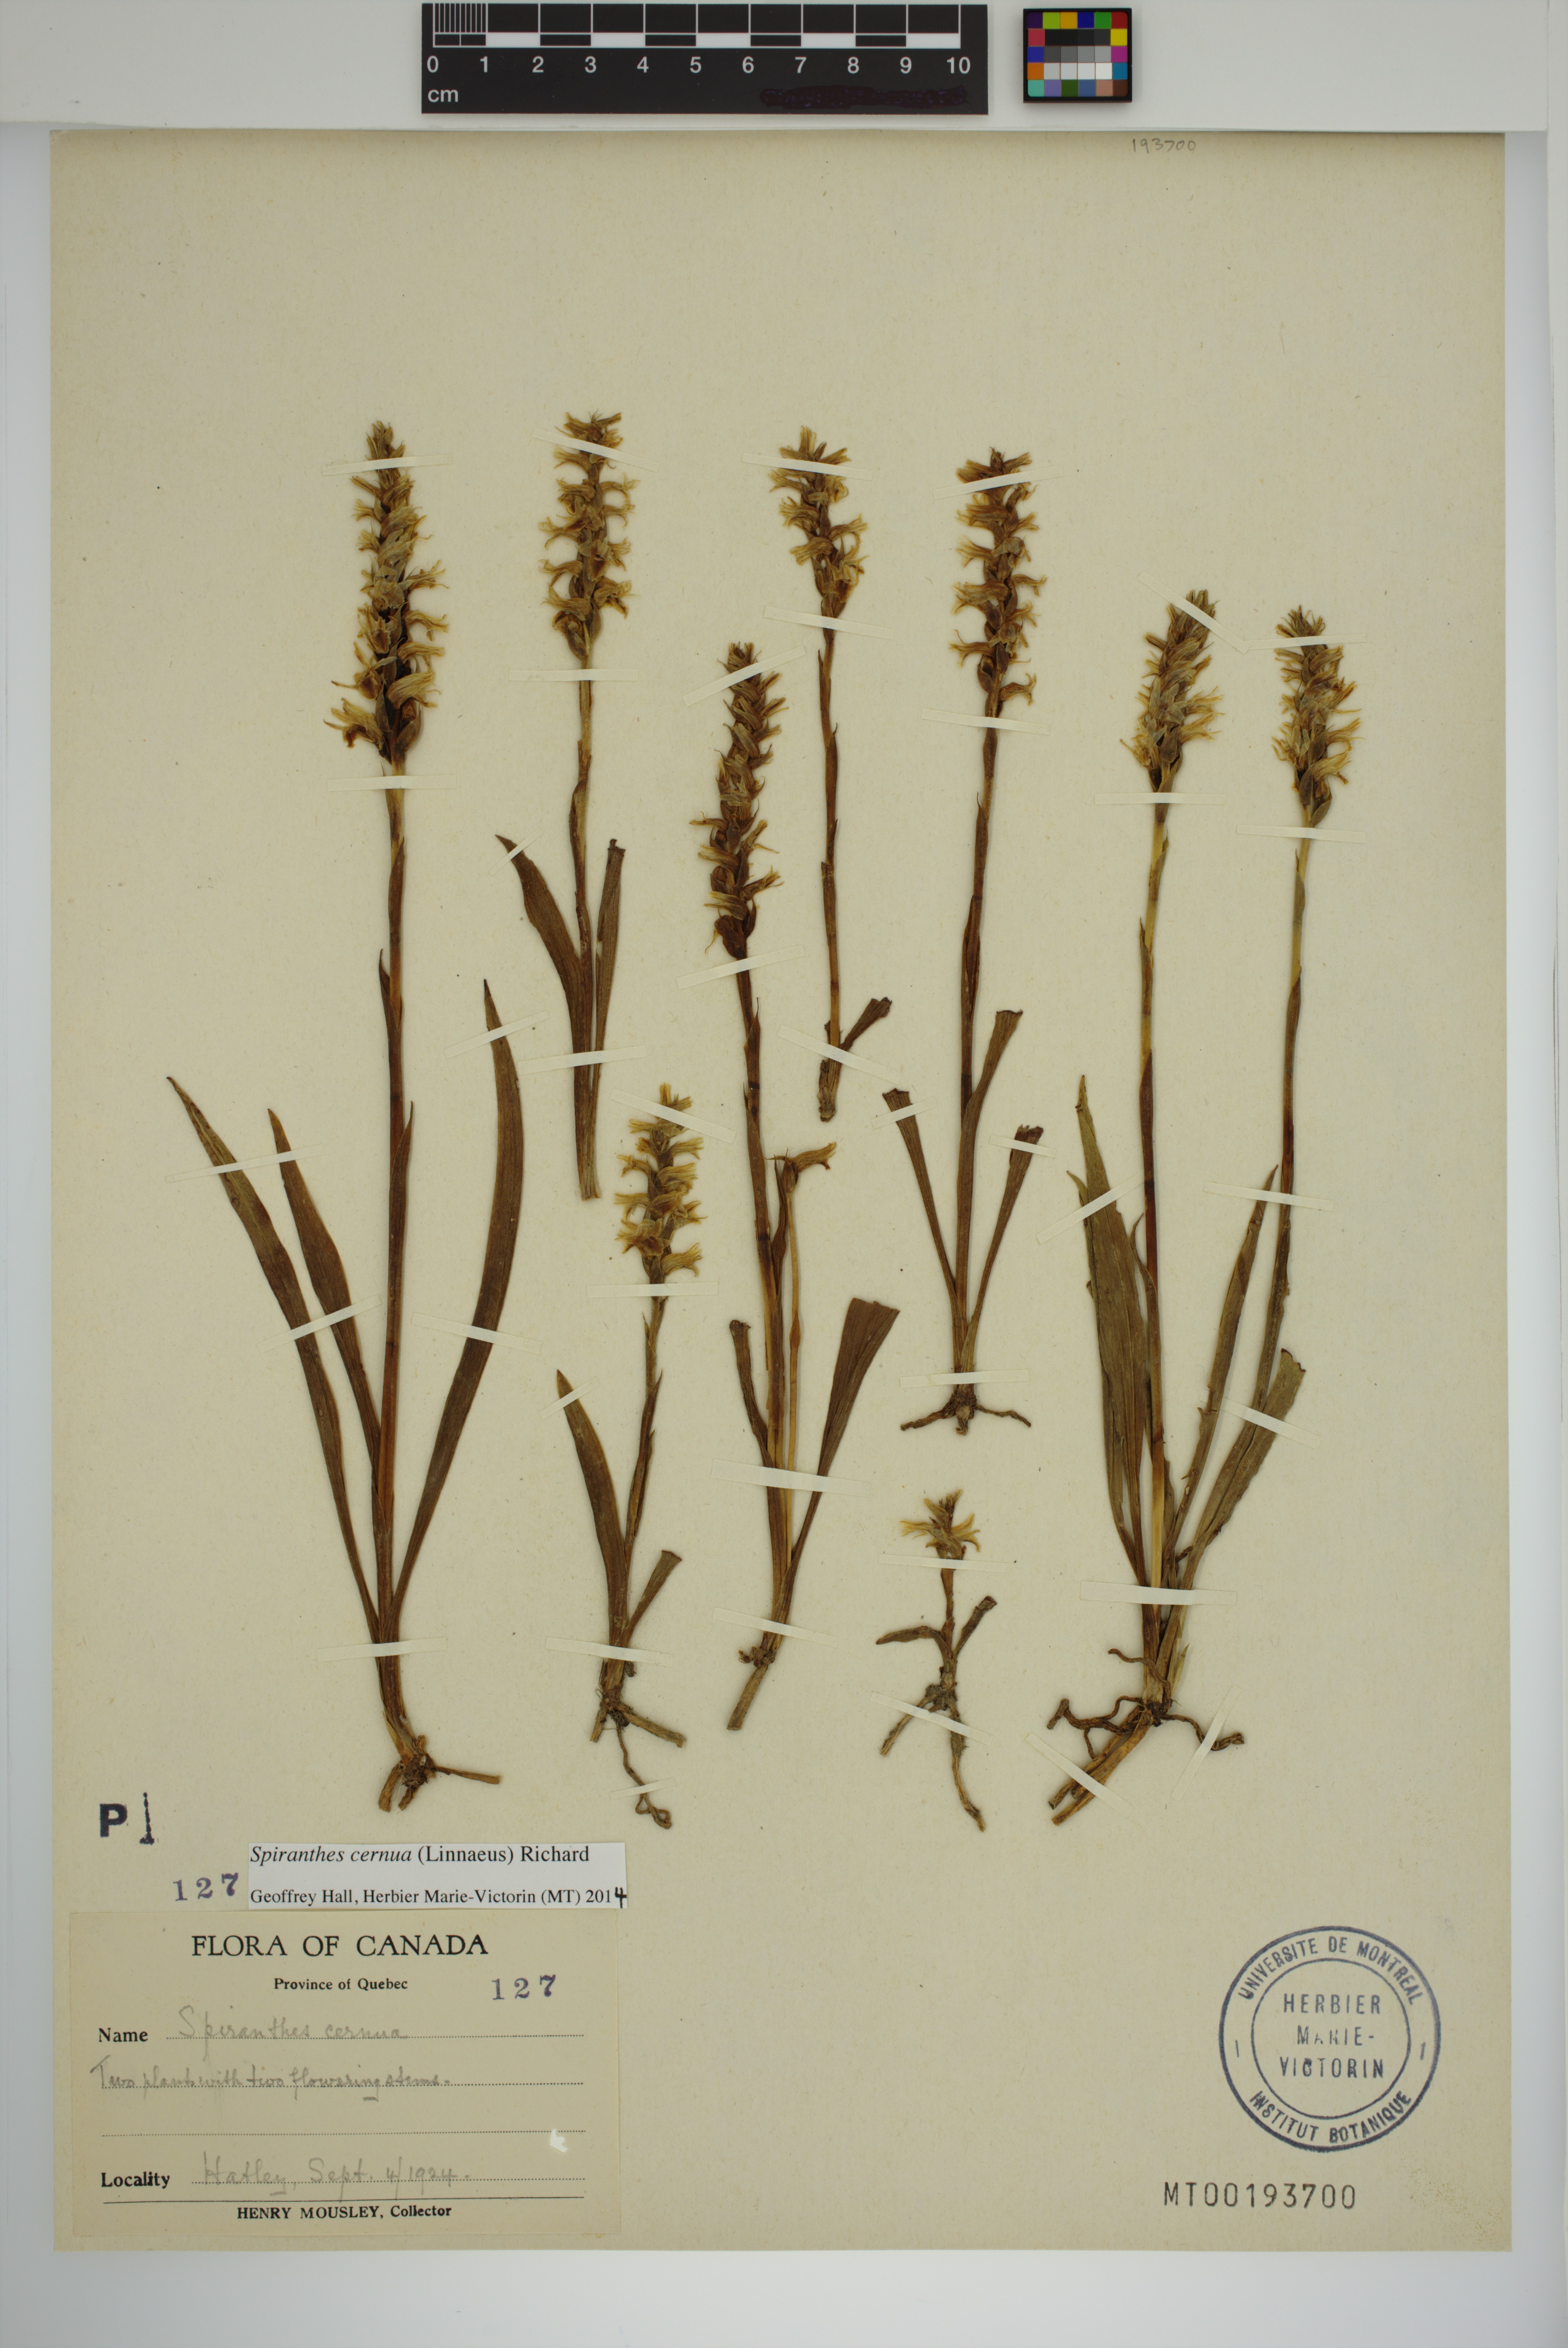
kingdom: Plantae
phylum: Tracheophyta
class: Liliopsida
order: Asparagales
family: Orchidaceae
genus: Spiranthes
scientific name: Spiranthes cernua
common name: Dropping ladies'-tresses
